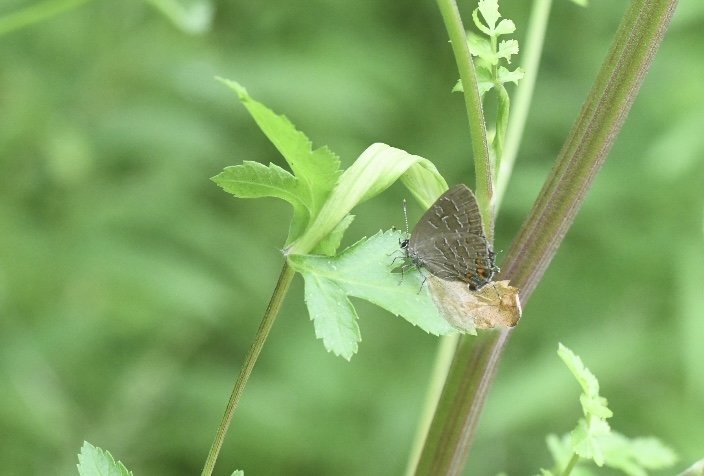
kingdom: Animalia
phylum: Arthropoda
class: Insecta
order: Lepidoptera
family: Lycaenidae
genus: Satyrium
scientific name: Satyrium liparops
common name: Striped Hairstreak
